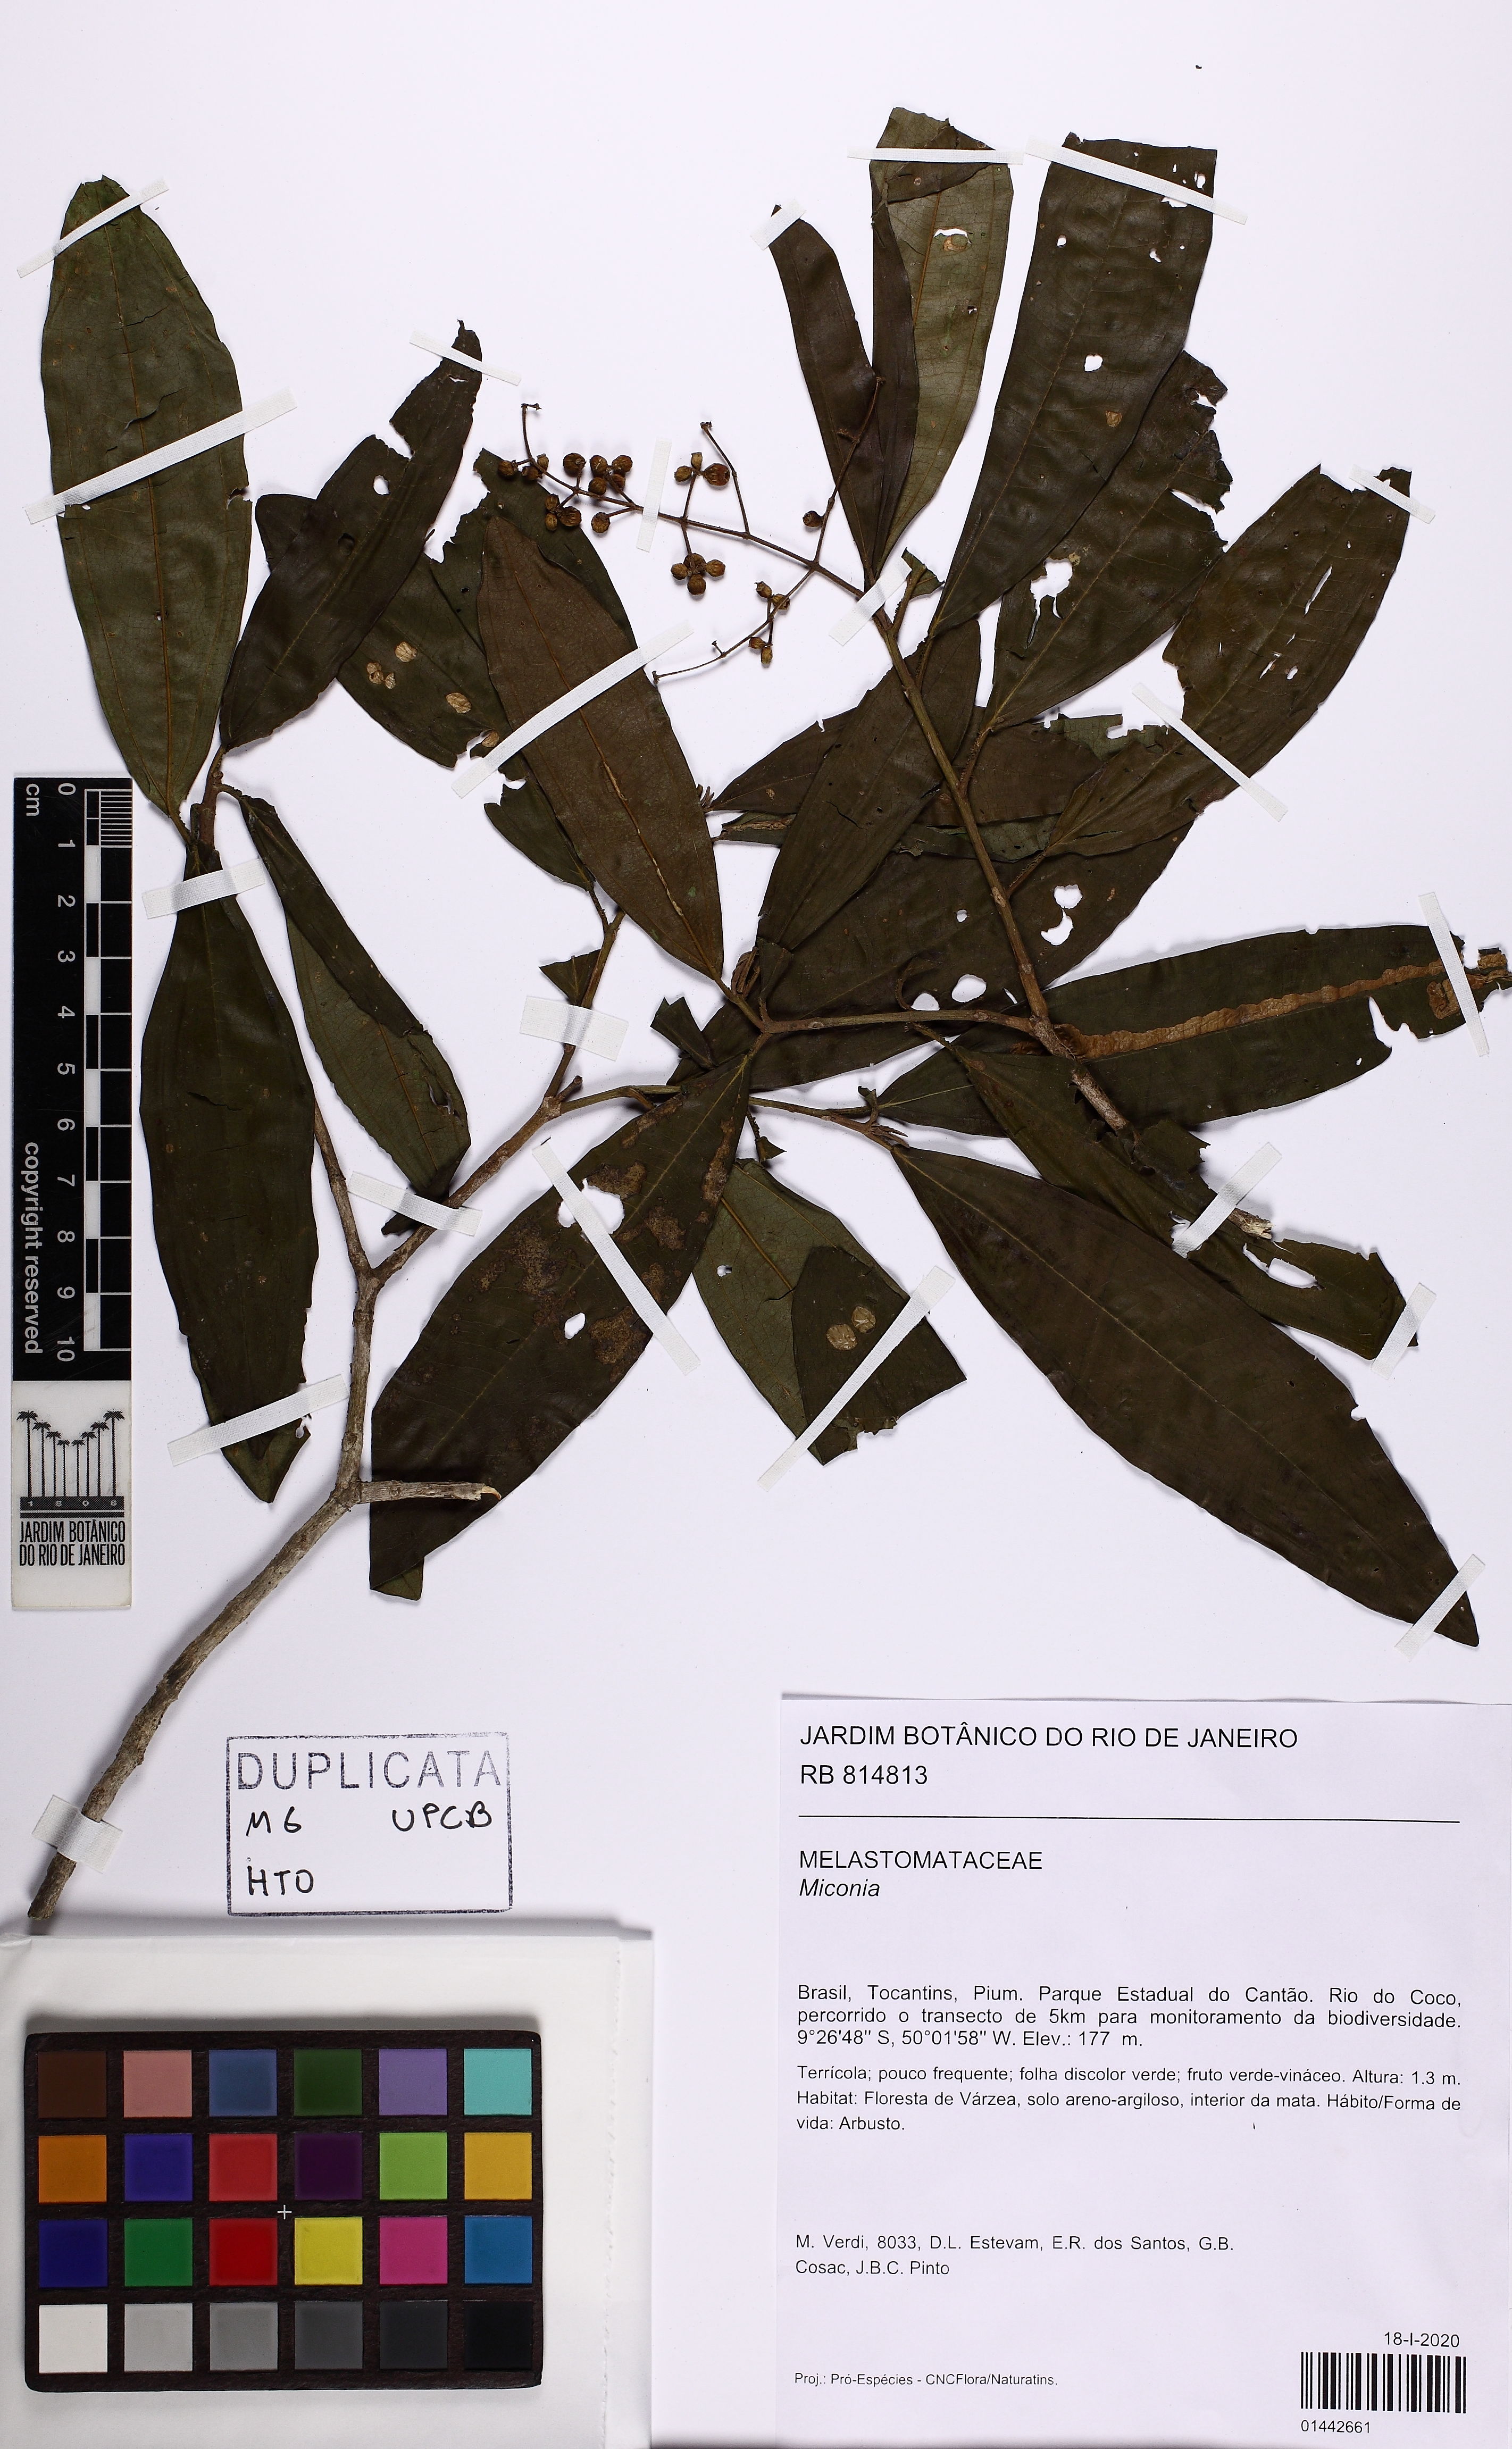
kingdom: Plantae
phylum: Tracheophyta
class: Magnoliopsida
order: Myrtales
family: Melastomataceae
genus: Miconia
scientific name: Miconia
